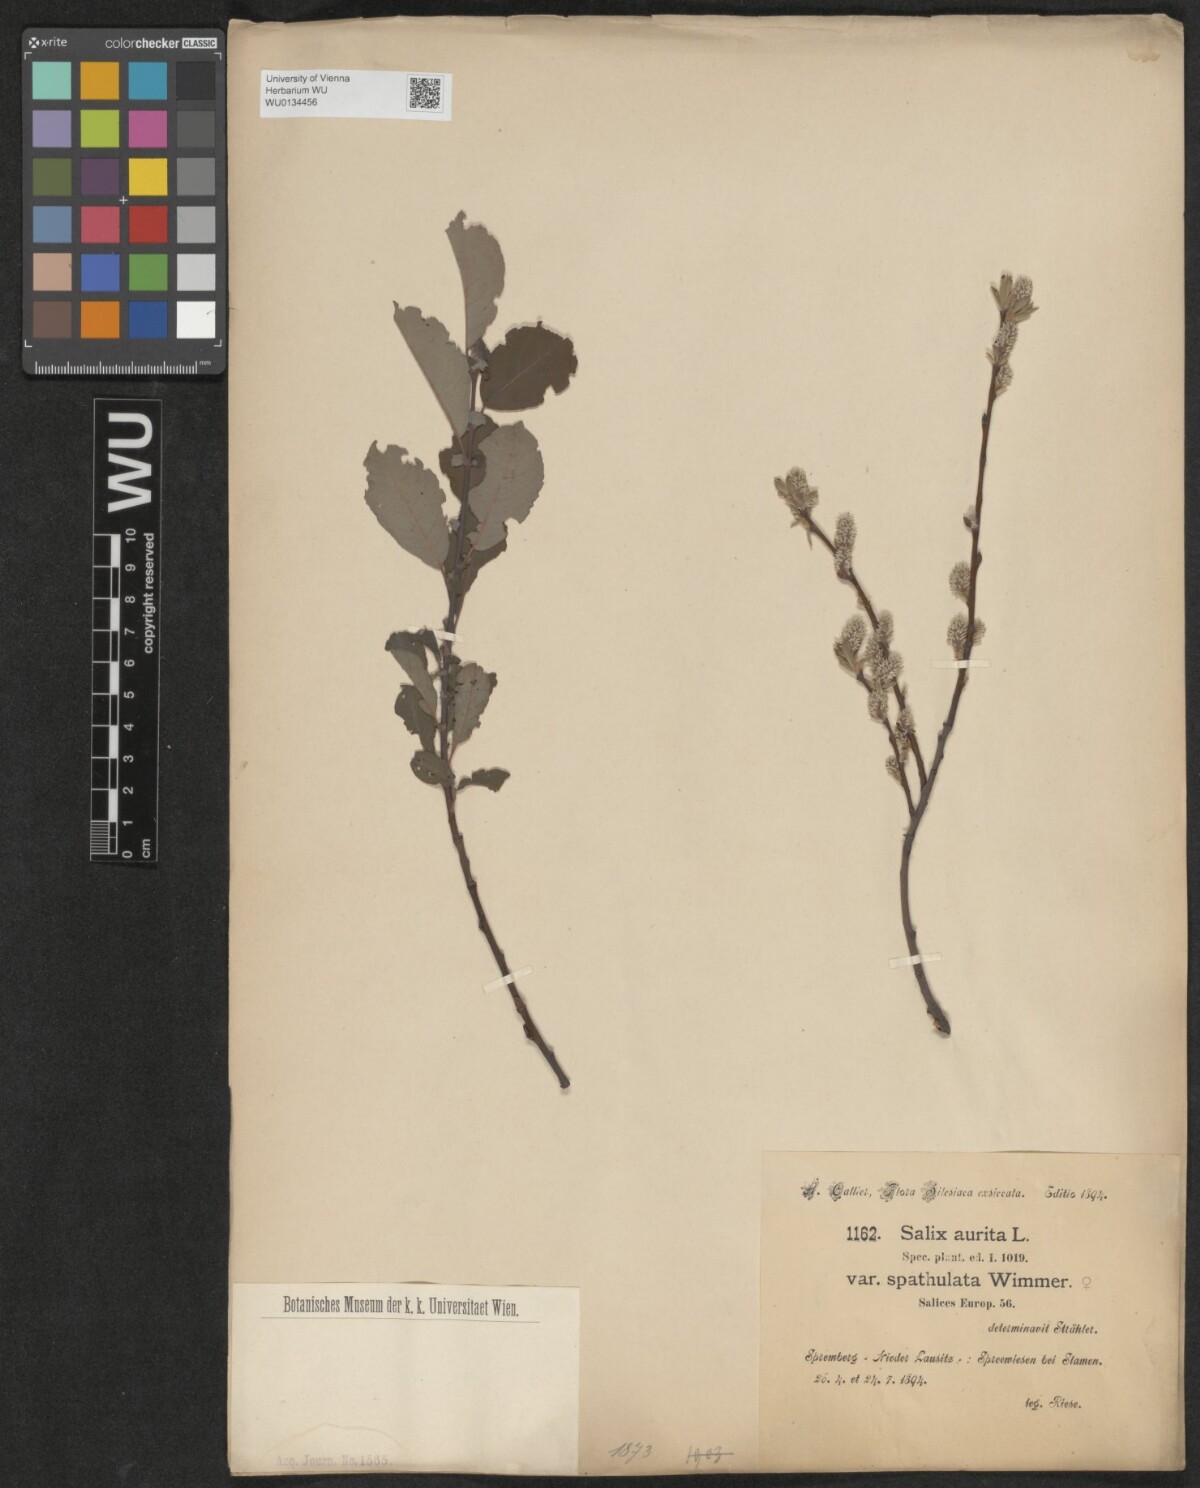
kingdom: Plantae
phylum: Tracheophyta
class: Magnoliopsida
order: Malpighiales
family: Salicaceae
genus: Salix
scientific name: Salix aurita
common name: Eared willow
